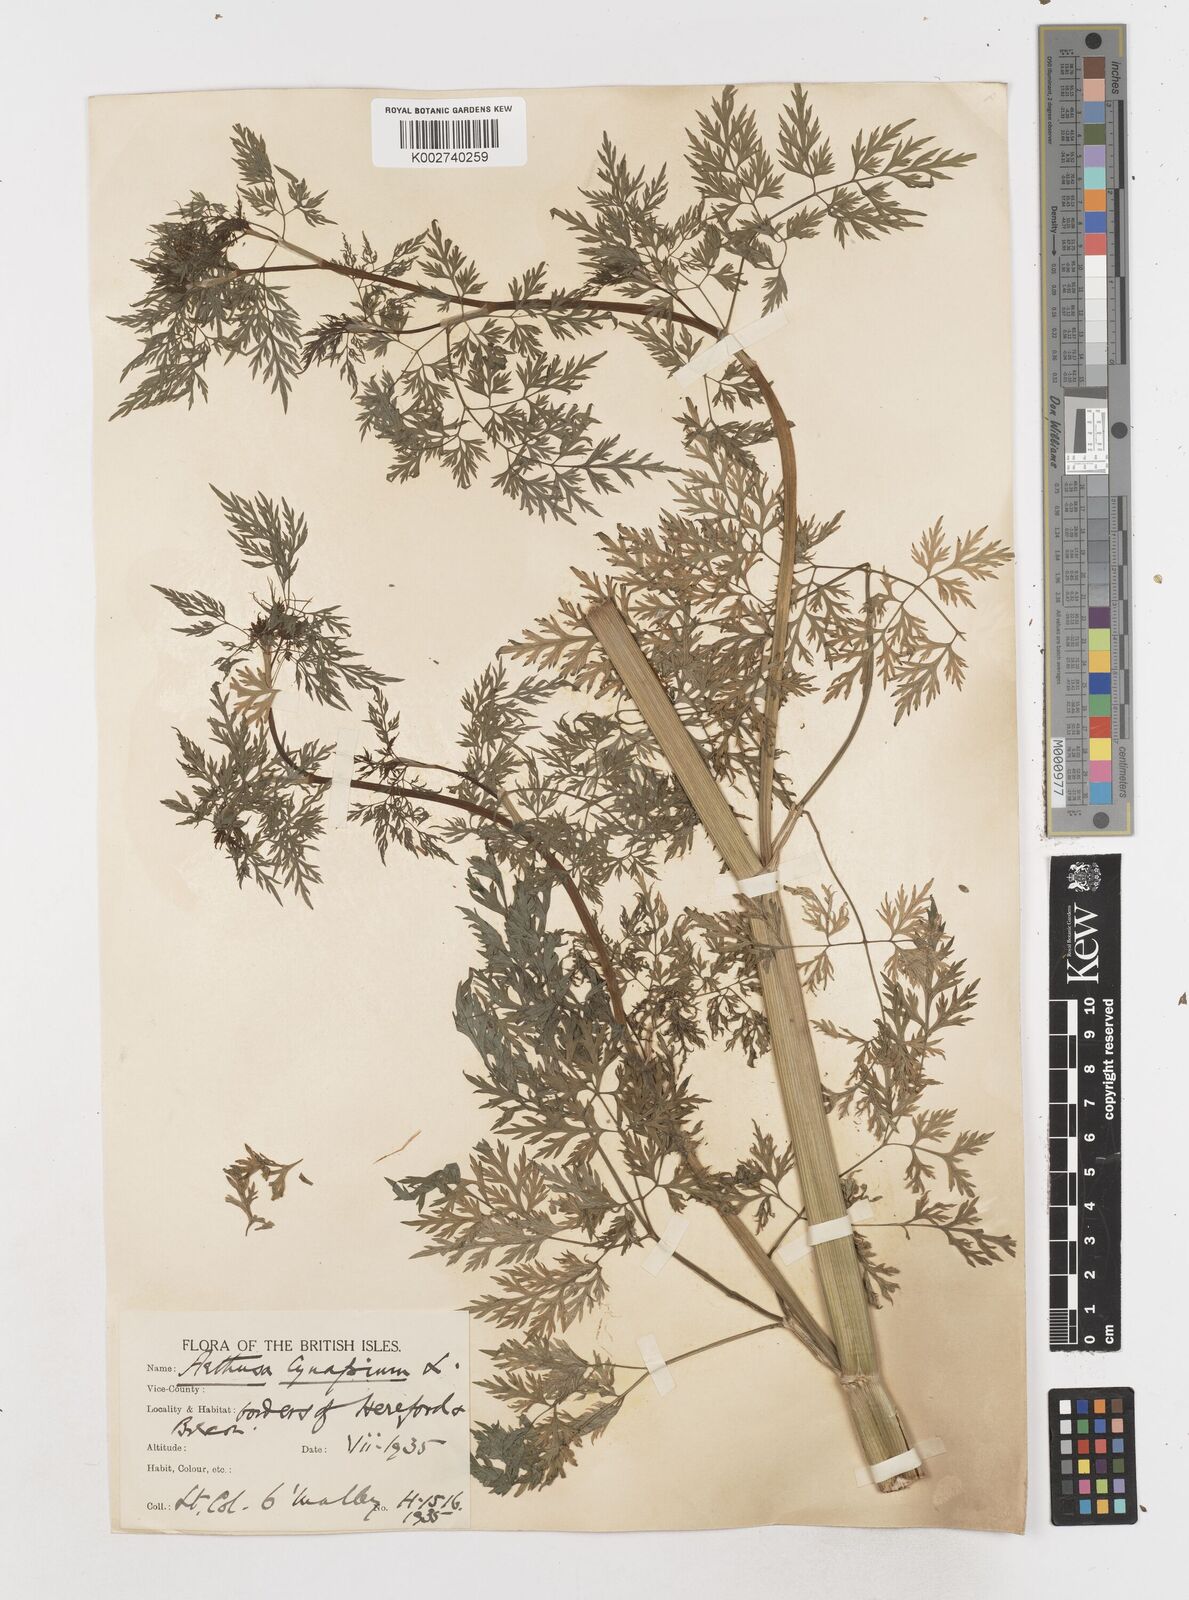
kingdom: Plantae
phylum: Tracheophyta
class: Magnoliopsida
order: Apiales
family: Apiaceae
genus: Aethusa
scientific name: Aethusa cynapium
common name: Fool's parsley
